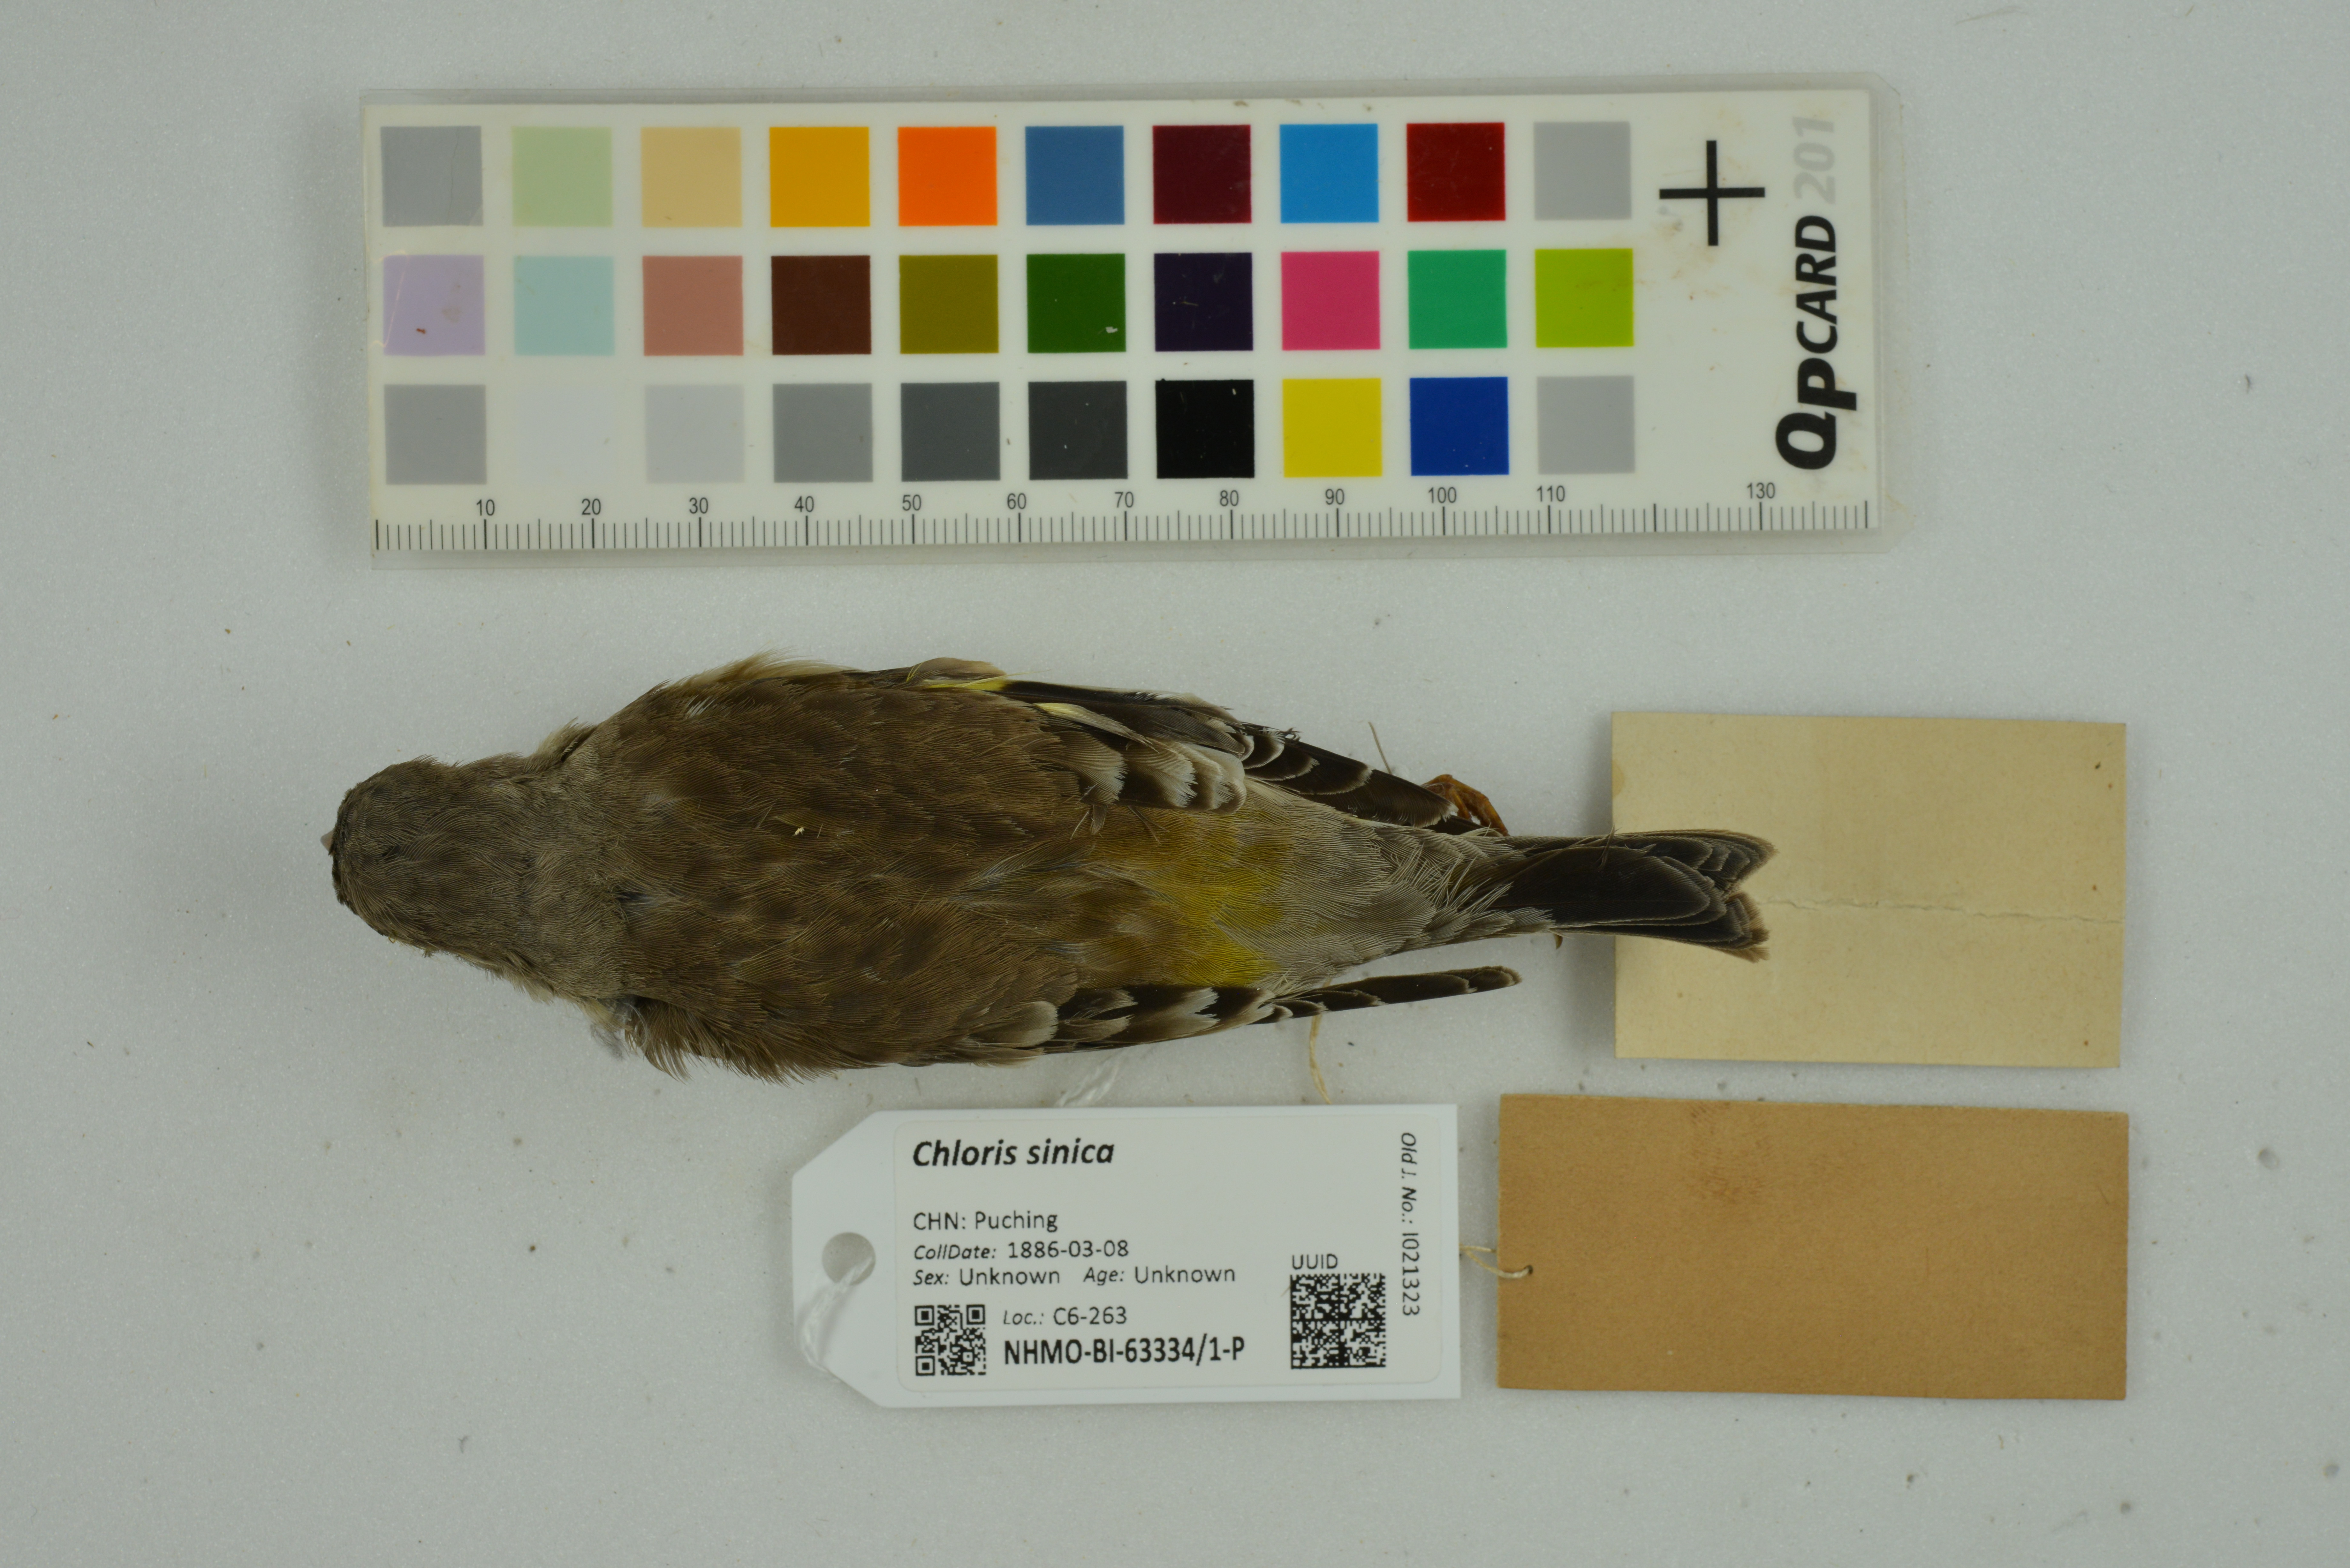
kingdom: Plantae
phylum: Tracheophyta
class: Liliopsida
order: Poales
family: Poaceae
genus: Chloris
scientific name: Chloris sinica
